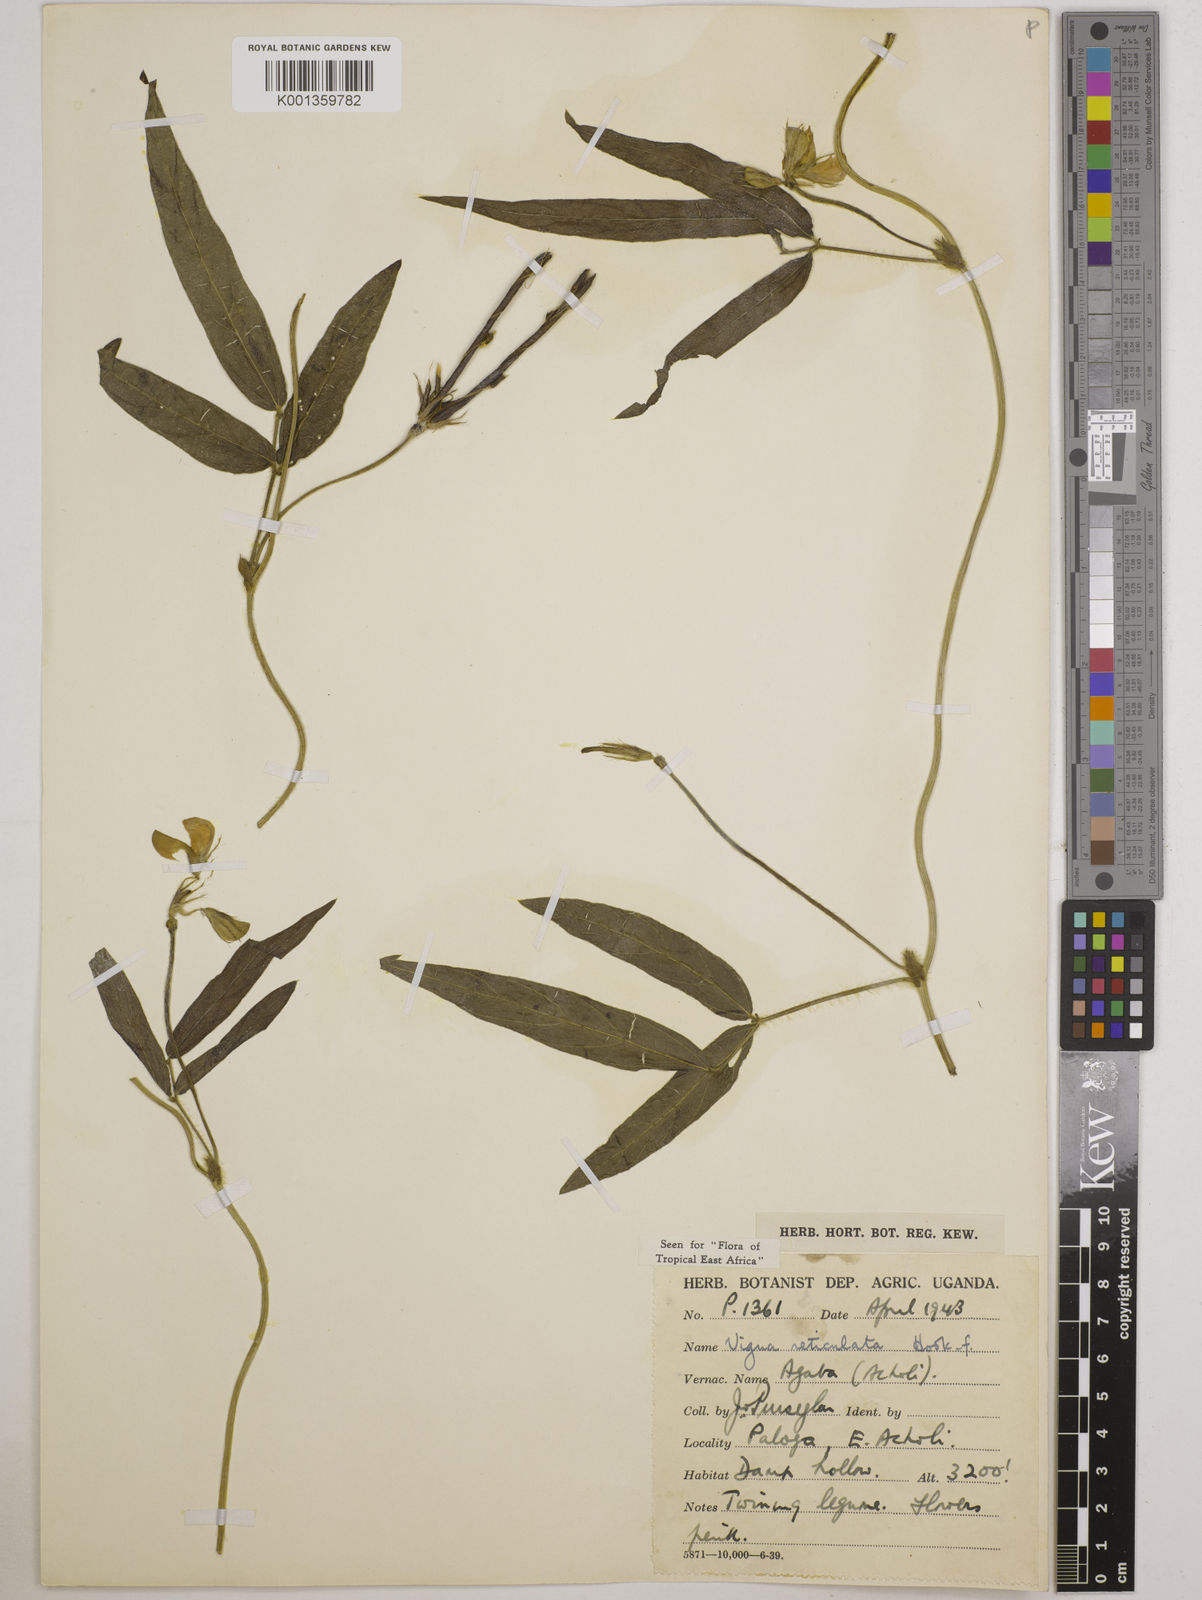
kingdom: Plantae
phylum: Tracheophyta
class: Magnoliopsida
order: Fabales
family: Fabaceae
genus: Vigna
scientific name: Vigna reticulata
